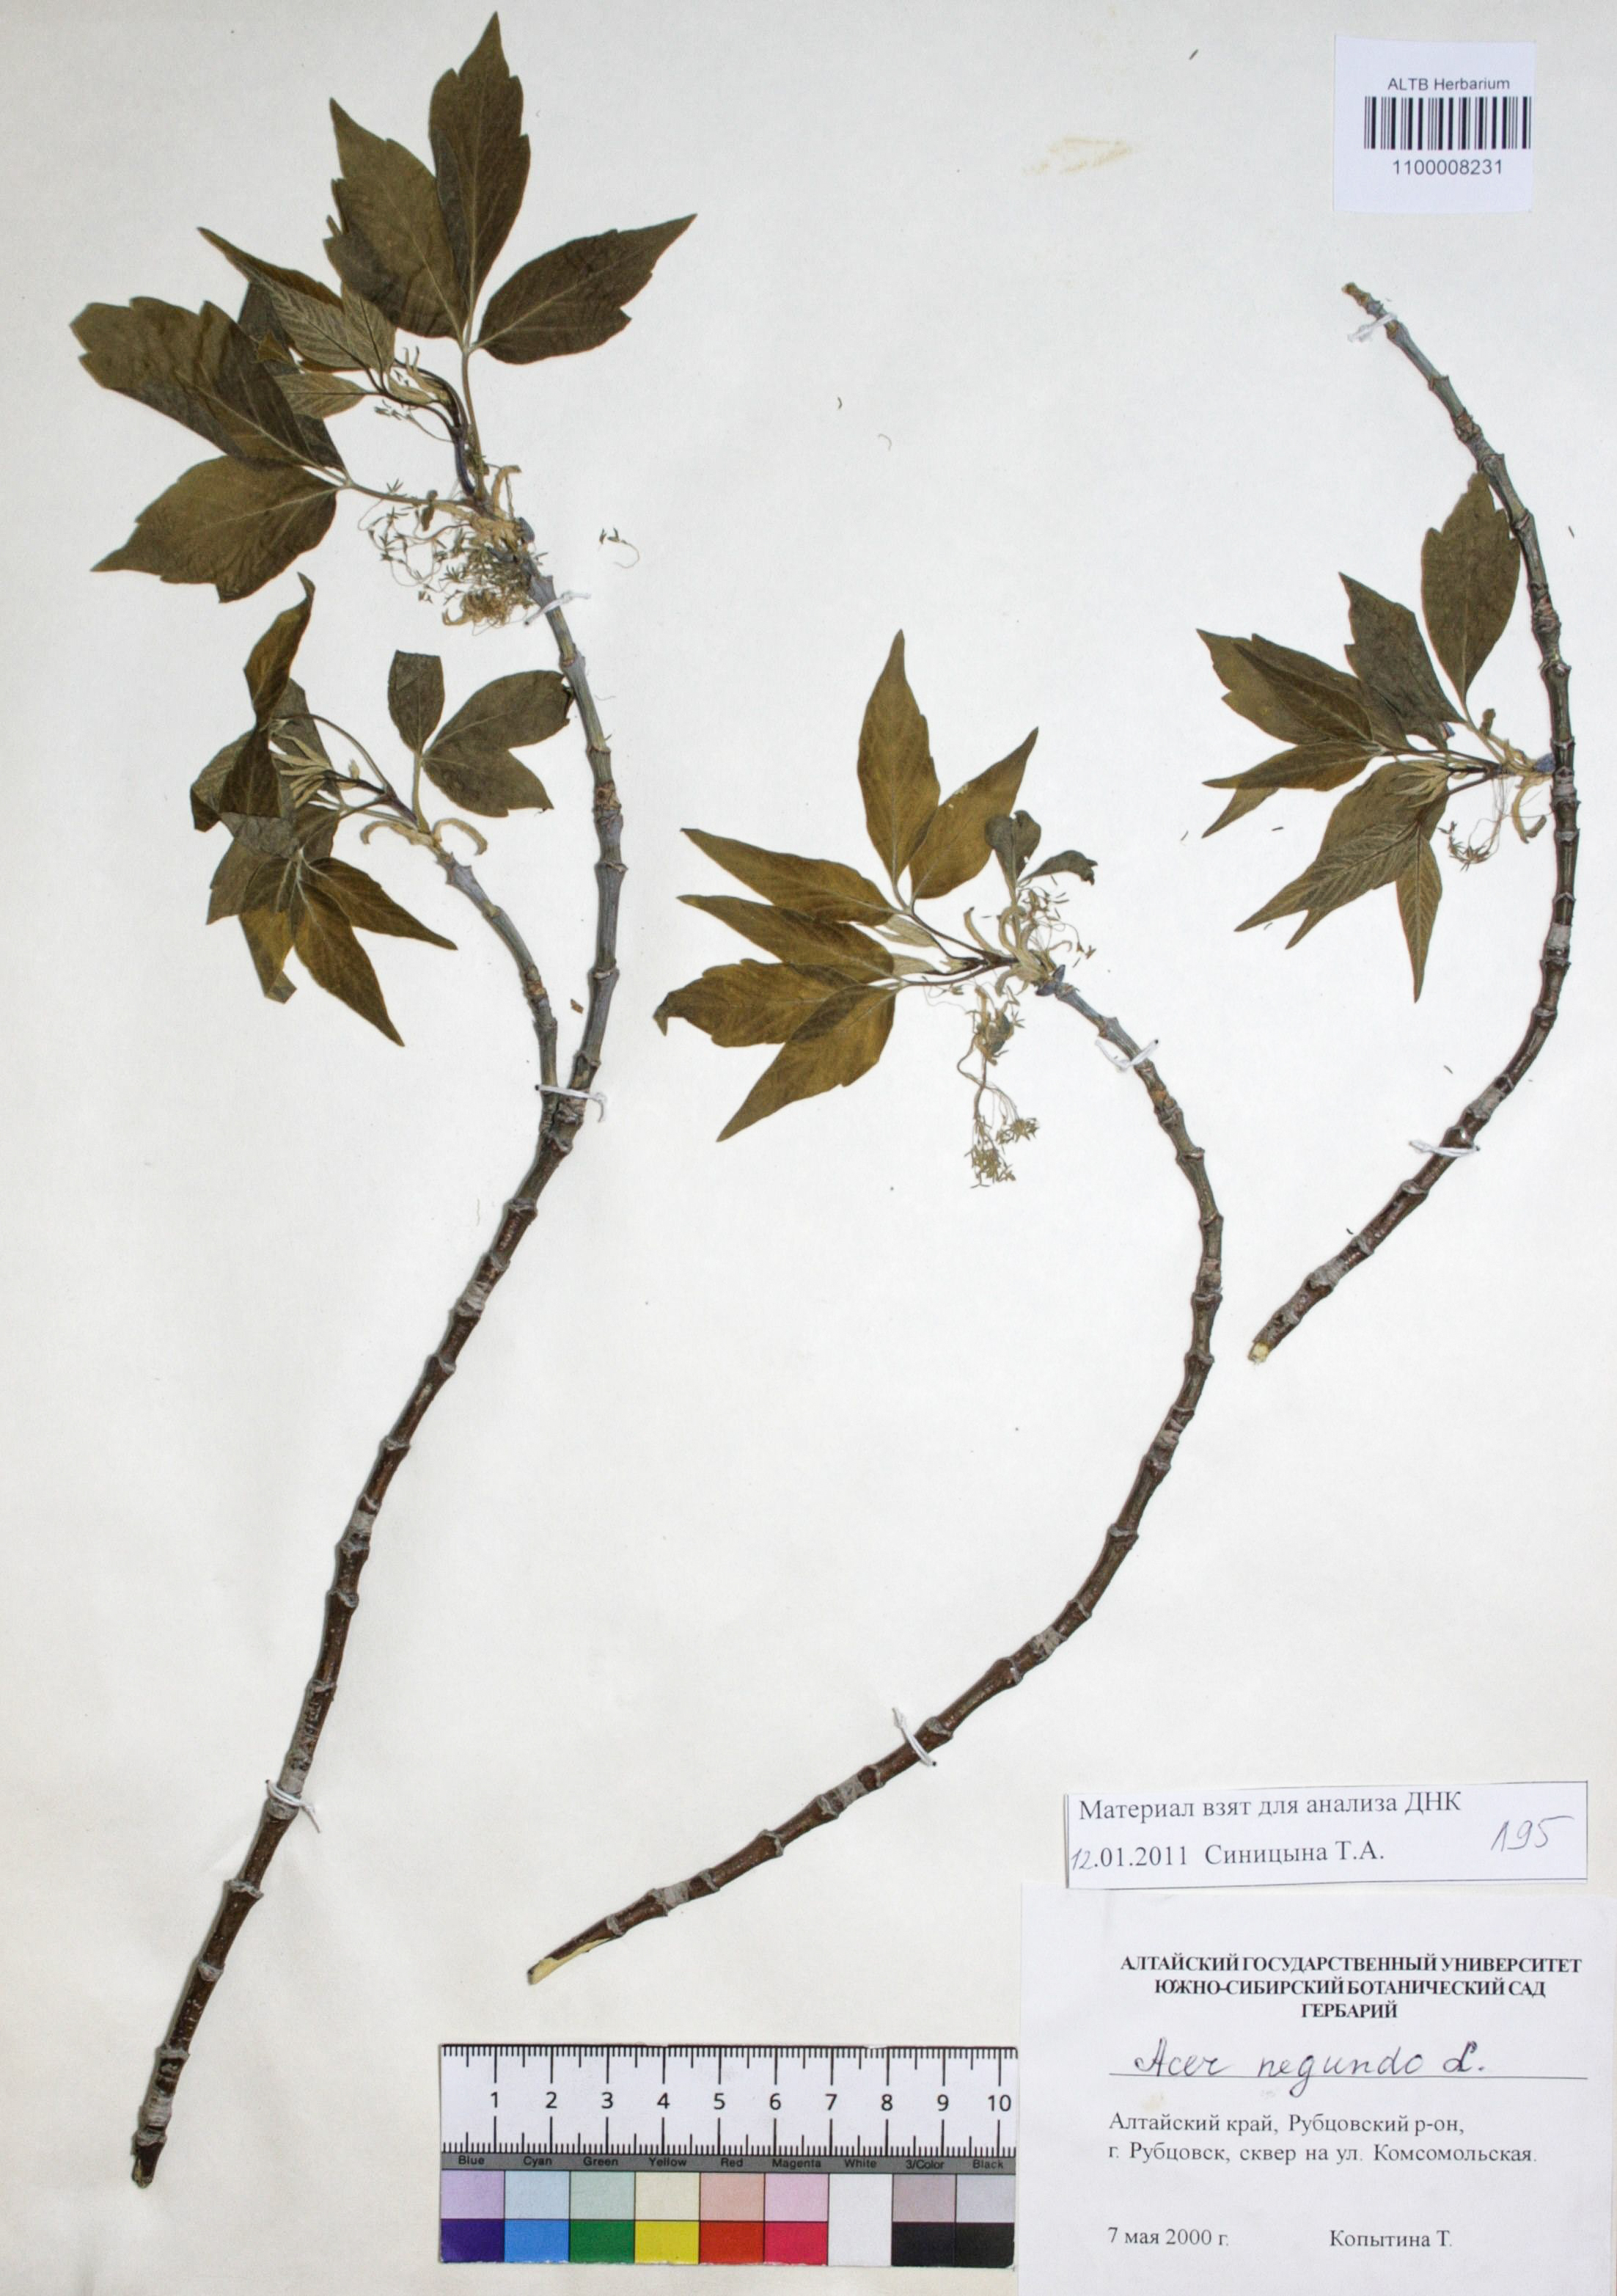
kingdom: Plantae
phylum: Tracheophyta
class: Magnoliopsida
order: Sapindales
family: Sapindaceae
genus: Acer
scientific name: Acer negundo
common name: Ashleaf maple
